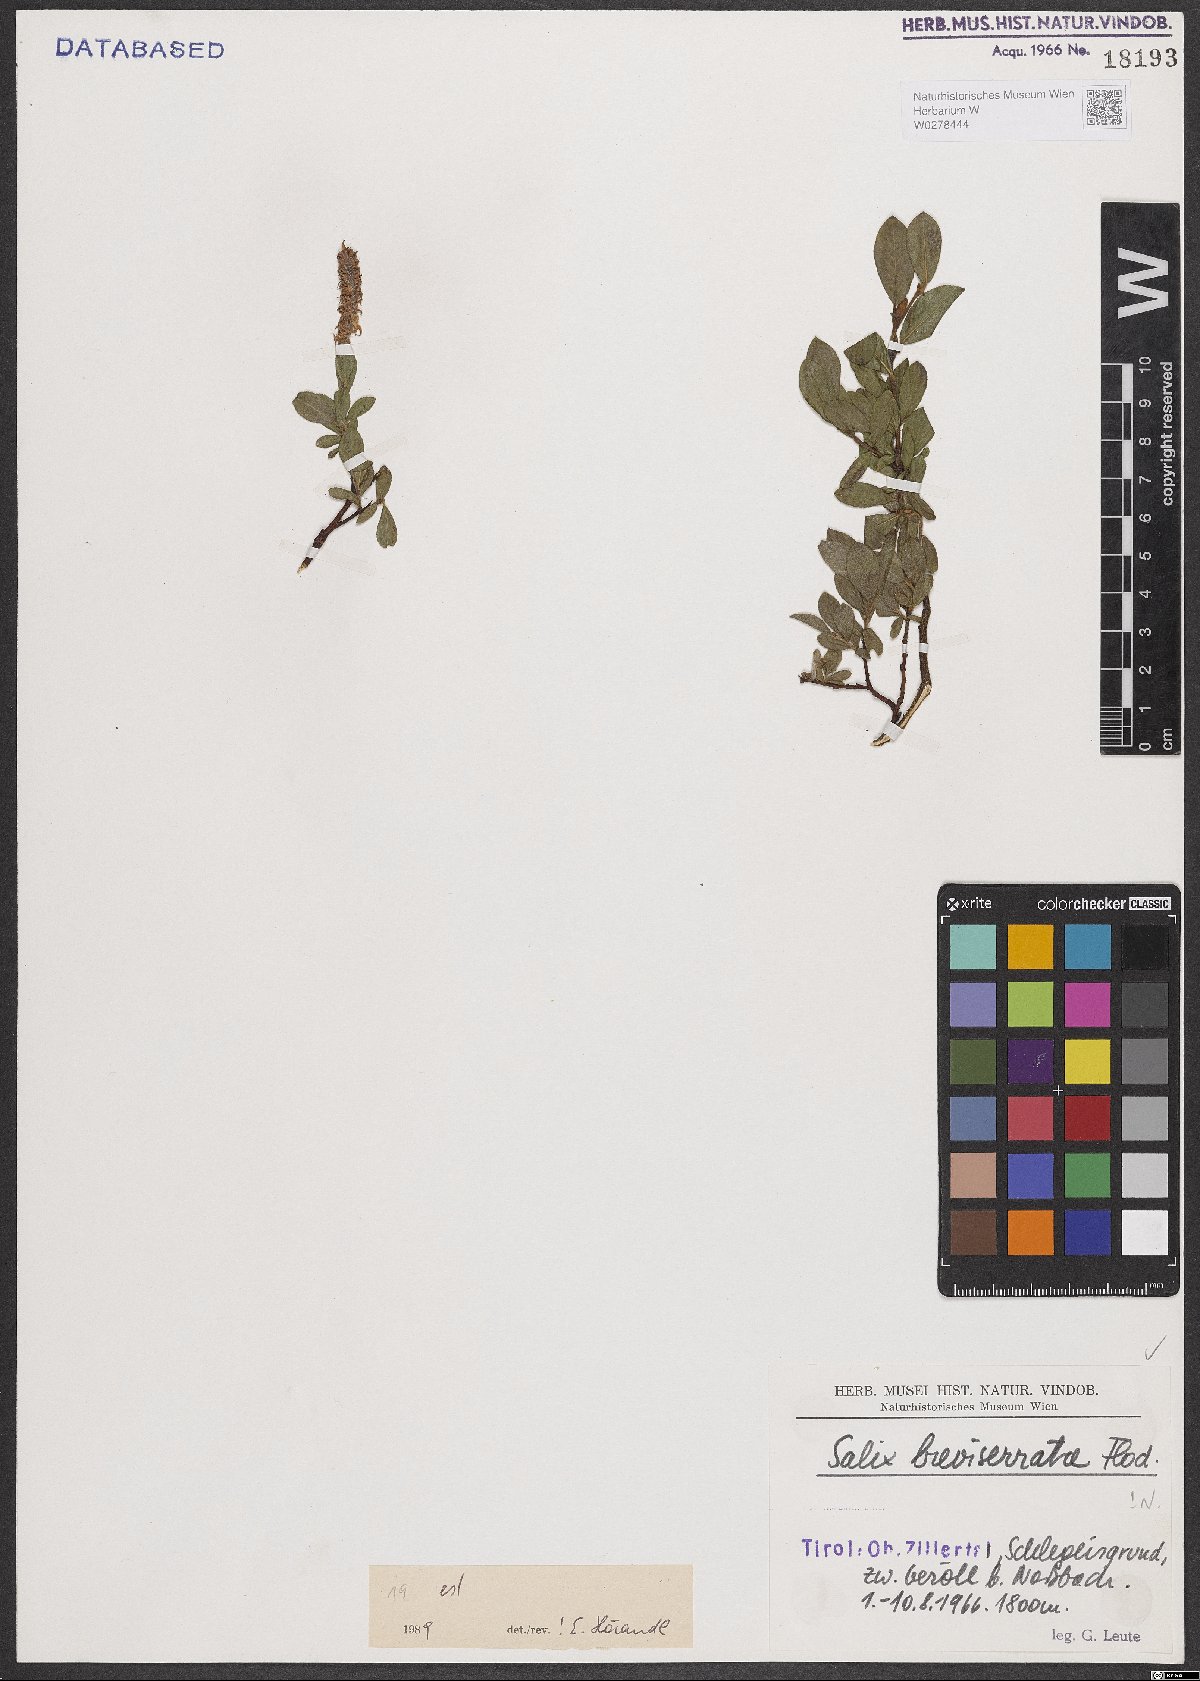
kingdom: Plantae
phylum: Tracheophyta
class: Magnoliopsida
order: Malpighiales
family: Salicaceae
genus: Salix
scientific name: Salix breviserrata
